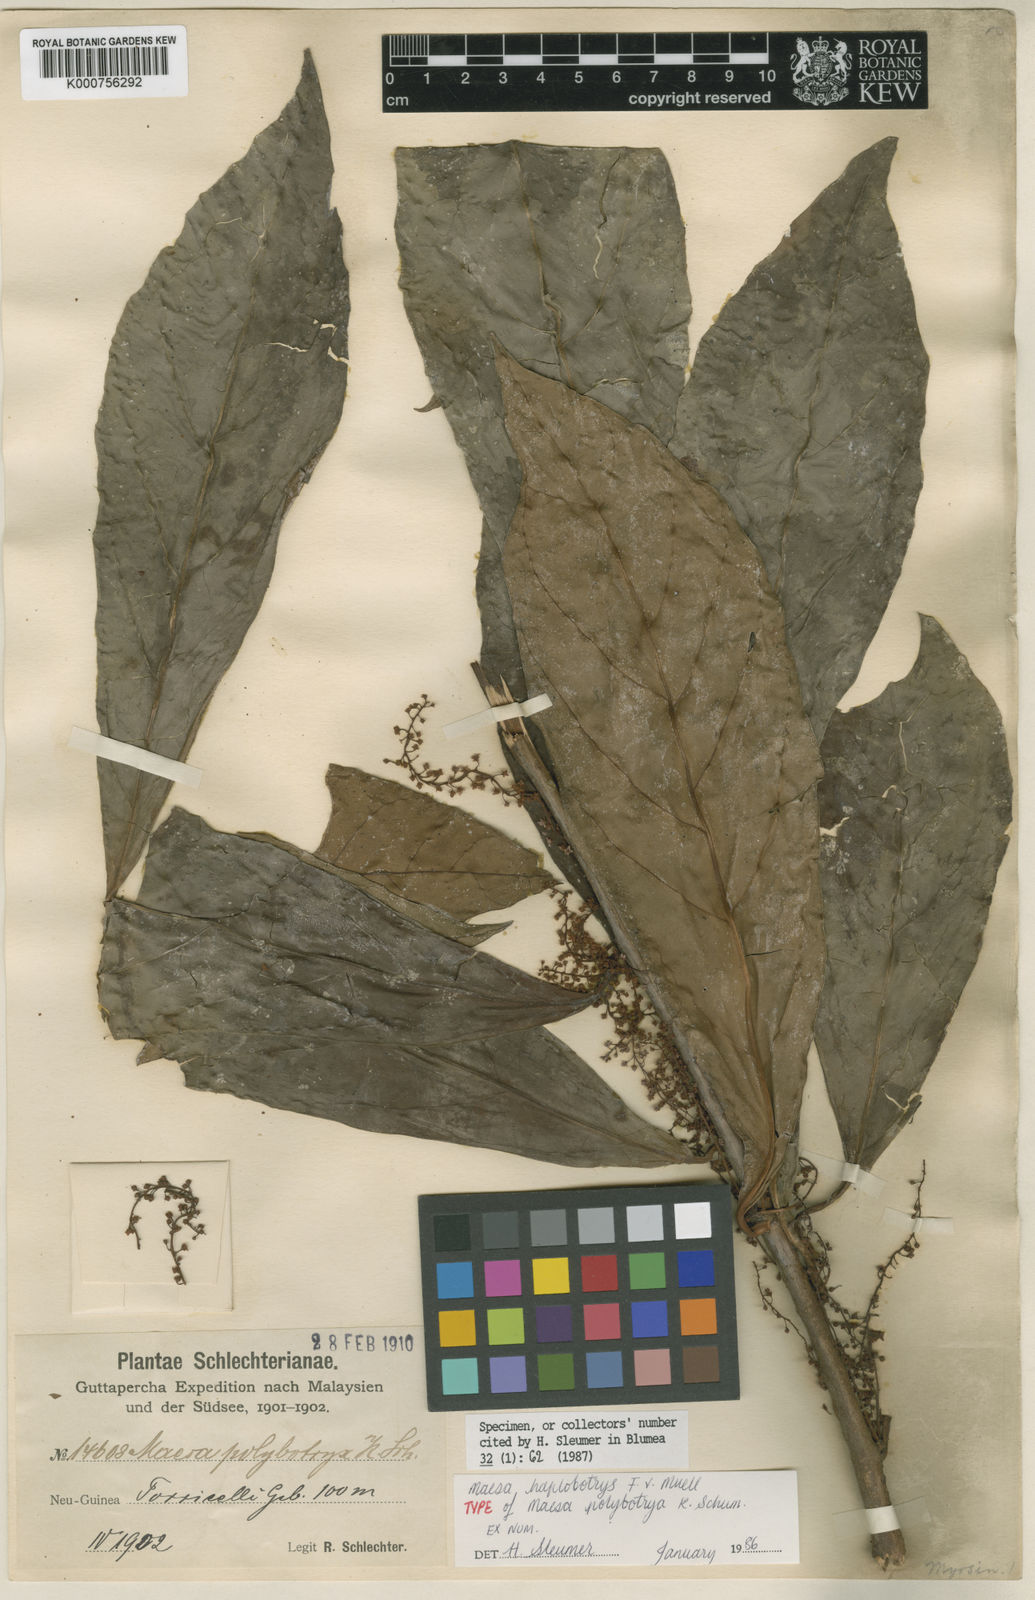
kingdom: Plantae
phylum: Tracheophyta
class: Magnoliopsida
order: Ericales
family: Primulaceae
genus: Maesa
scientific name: Maesa haplobotrys
